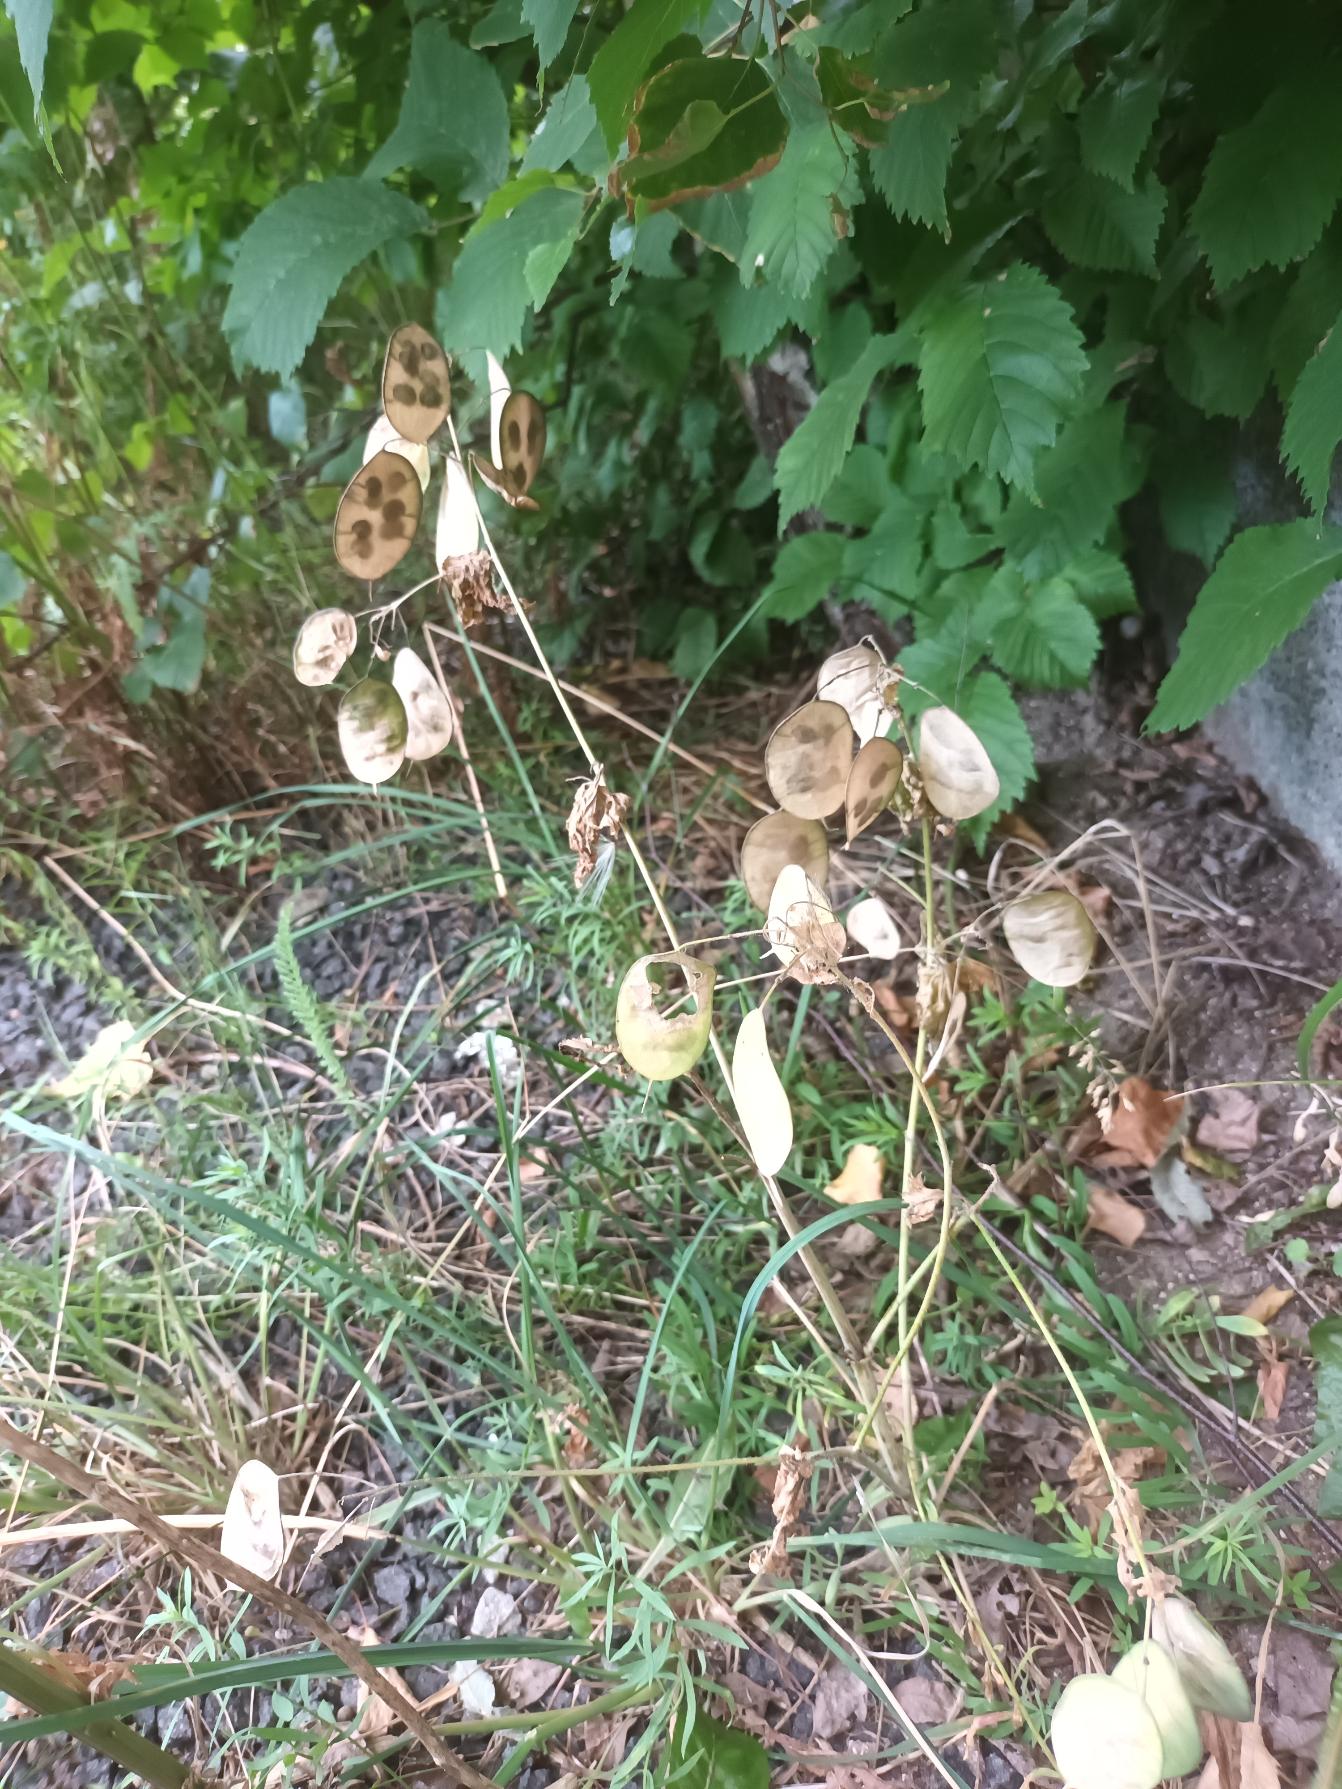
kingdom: Plantae
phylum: Tracheophyta
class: Magnoliopsida
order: Brassicales
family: Brassicaceae
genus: Lunaria
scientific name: Lunaria annua
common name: Judaspenge
